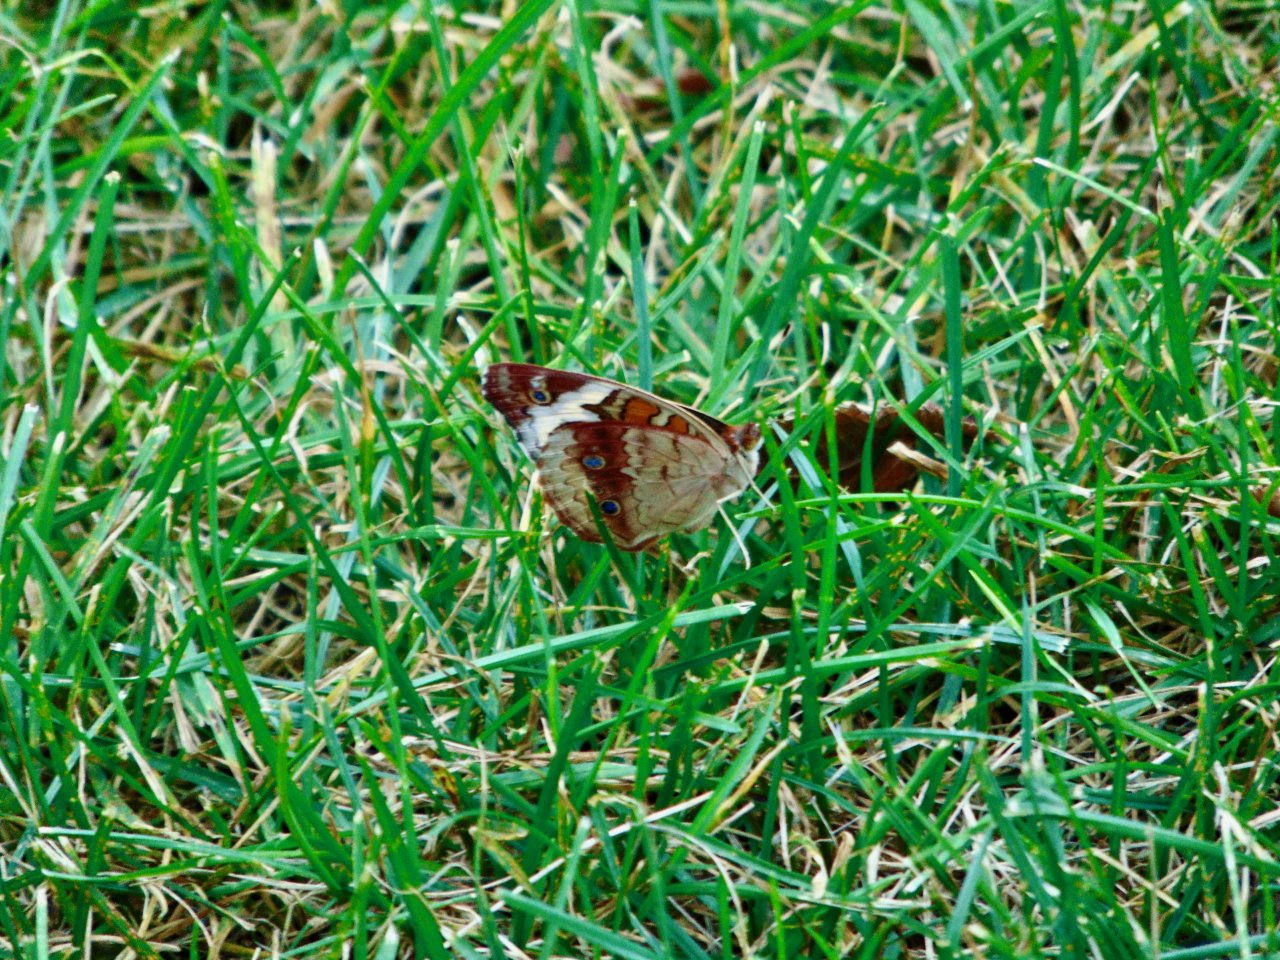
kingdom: Animalia
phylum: Arthropoda
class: Insecta
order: Lepidoptera
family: Nymphalidae
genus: Junonia
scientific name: Junonia coenia
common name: Common Buckeye
